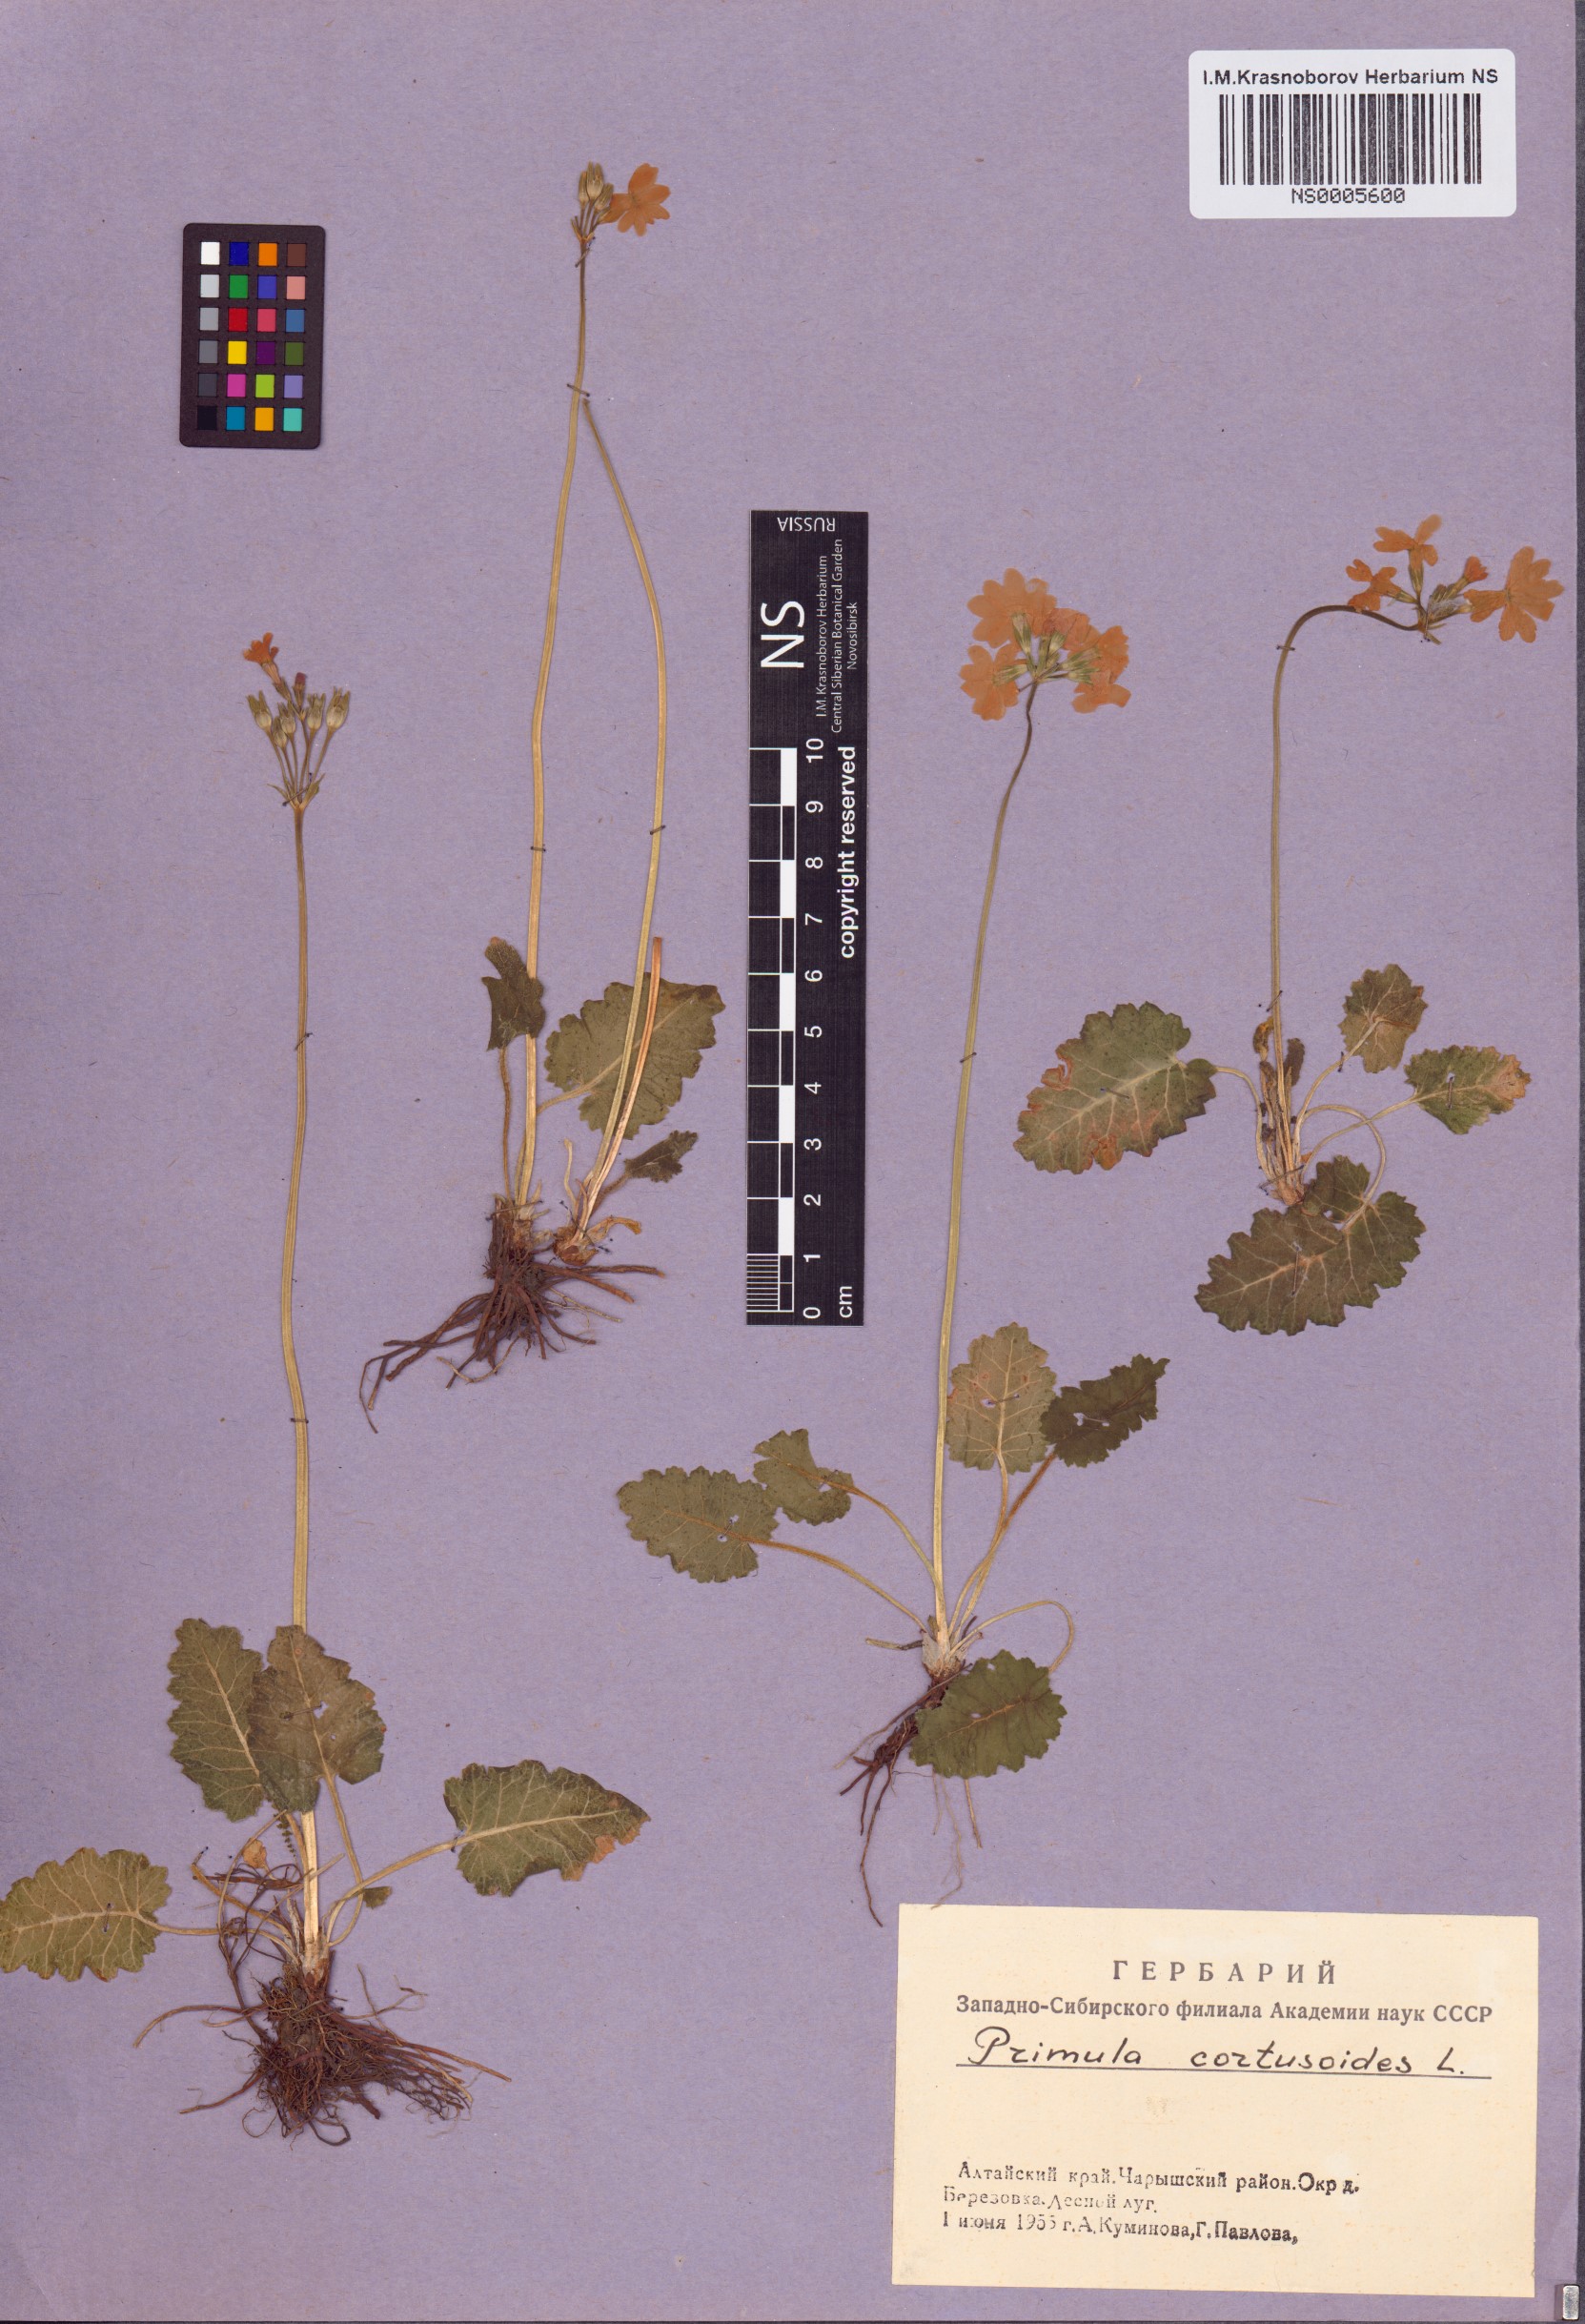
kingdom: Plantae
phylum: Tracheophyta
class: Magnoliopsida
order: Ericales
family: Primulaceae
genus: Primula
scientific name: Primula cortusoides
